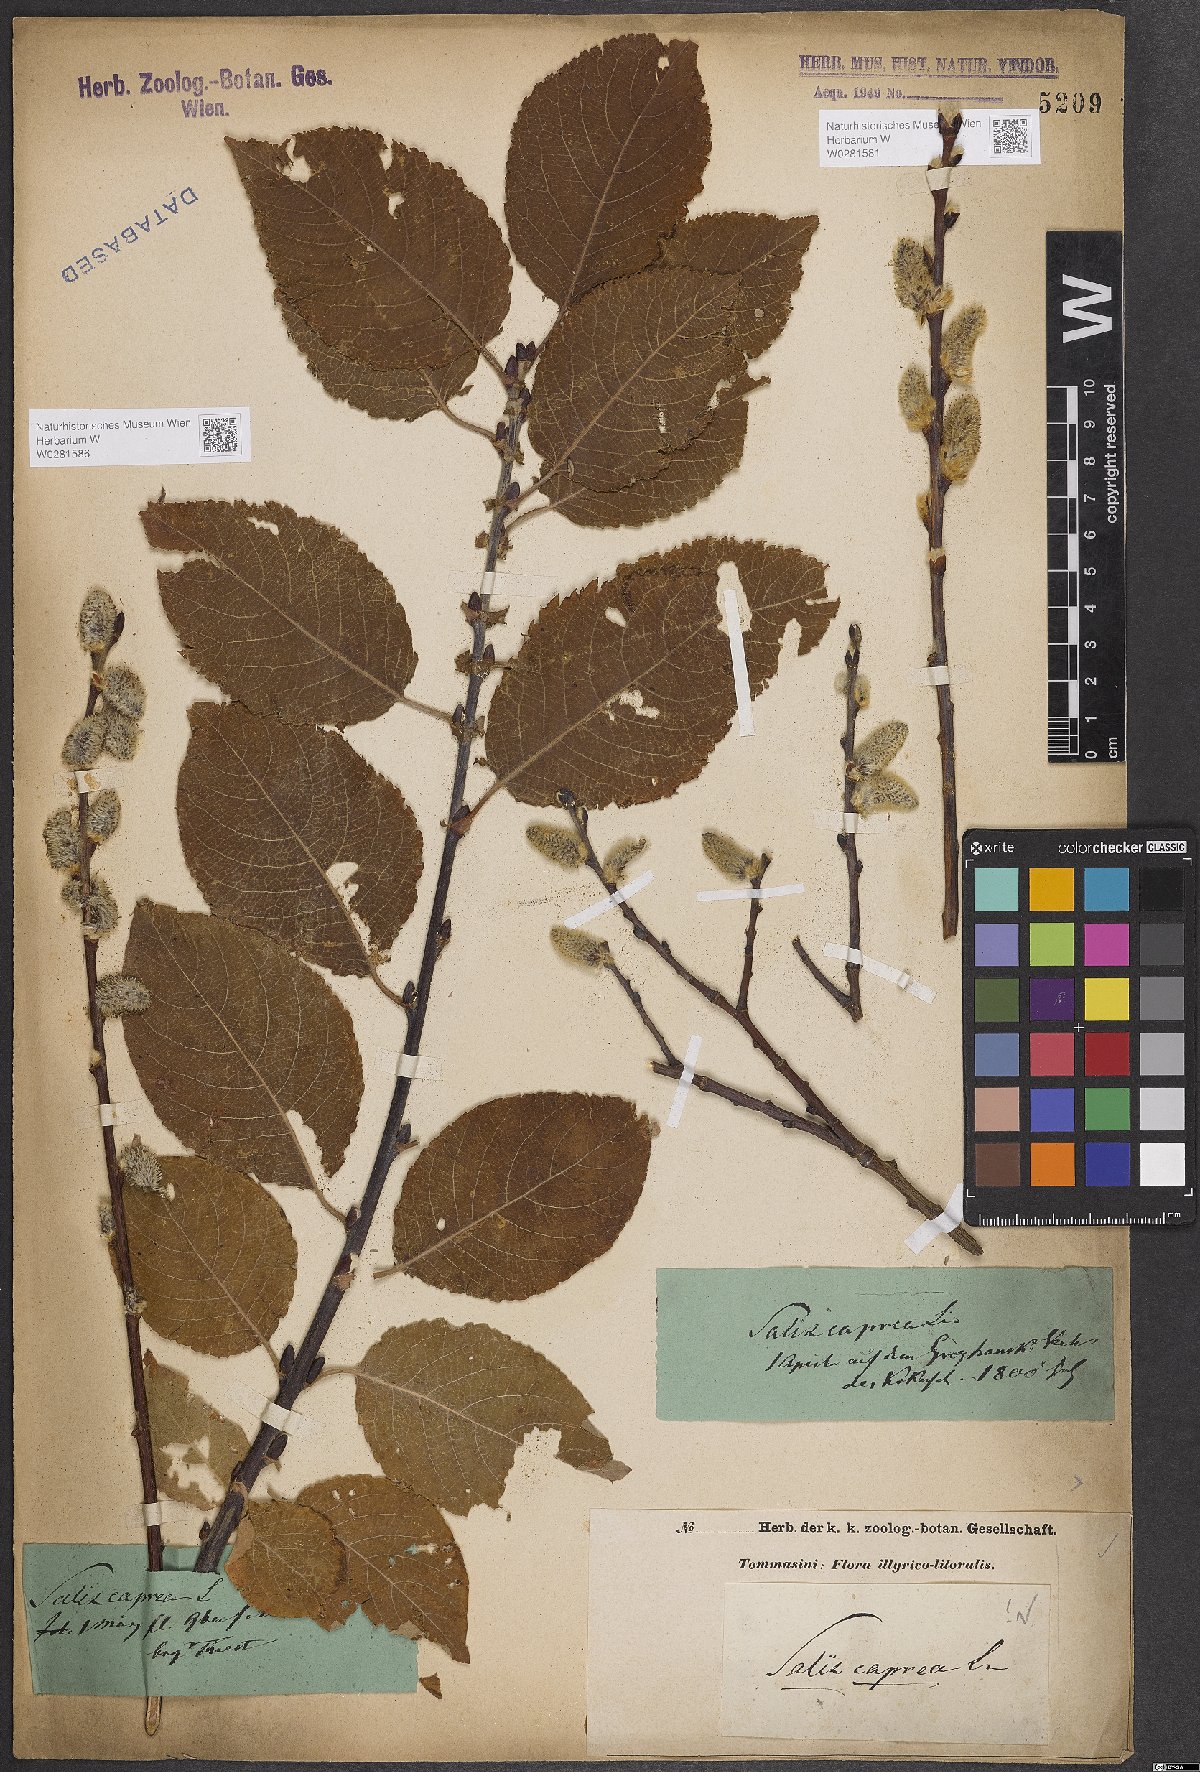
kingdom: Plantae
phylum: Tracheophyta
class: Magnoliopsida
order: Malpighiales
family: Salicaceae
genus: Salix
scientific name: Salix caprea
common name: Goat willow
